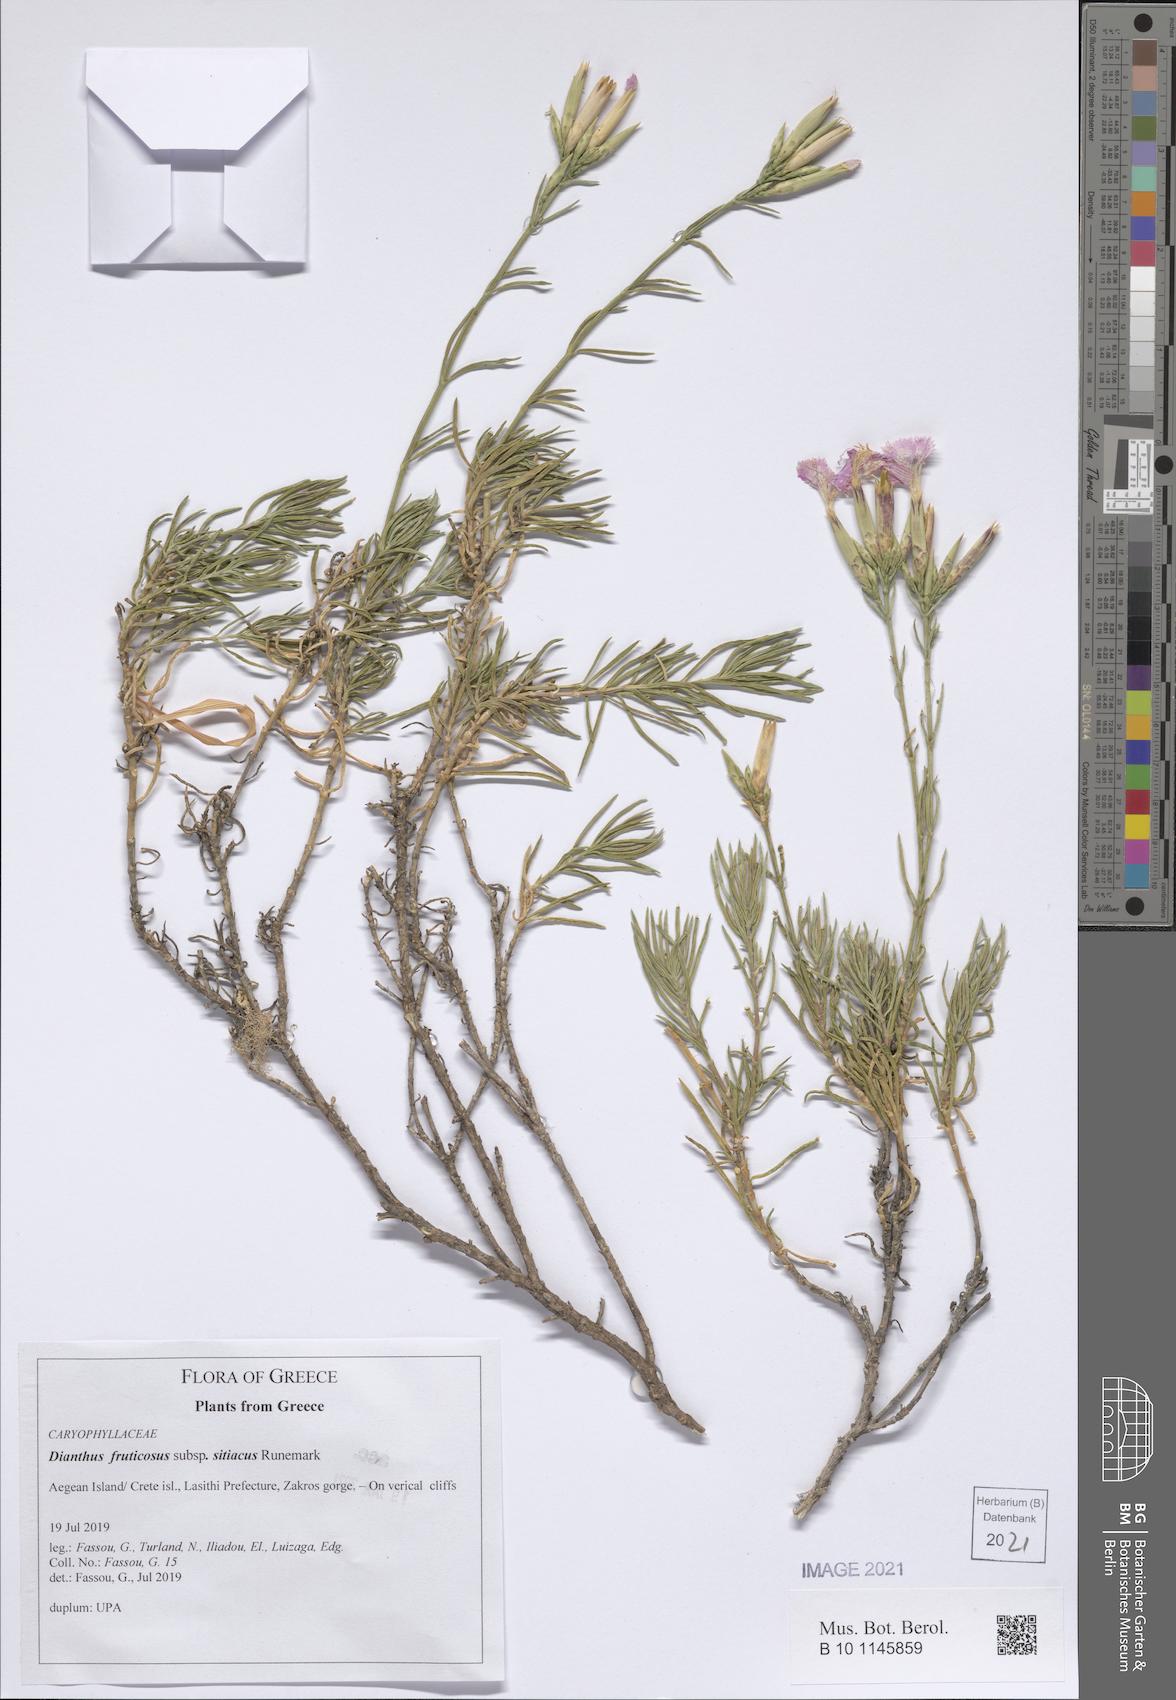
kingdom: Plantae
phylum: Tracheophyta
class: Magnoliopsida
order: Caryophyllales
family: Caryophyllaceae
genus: Dianthus
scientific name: Dianthus fruticosus
